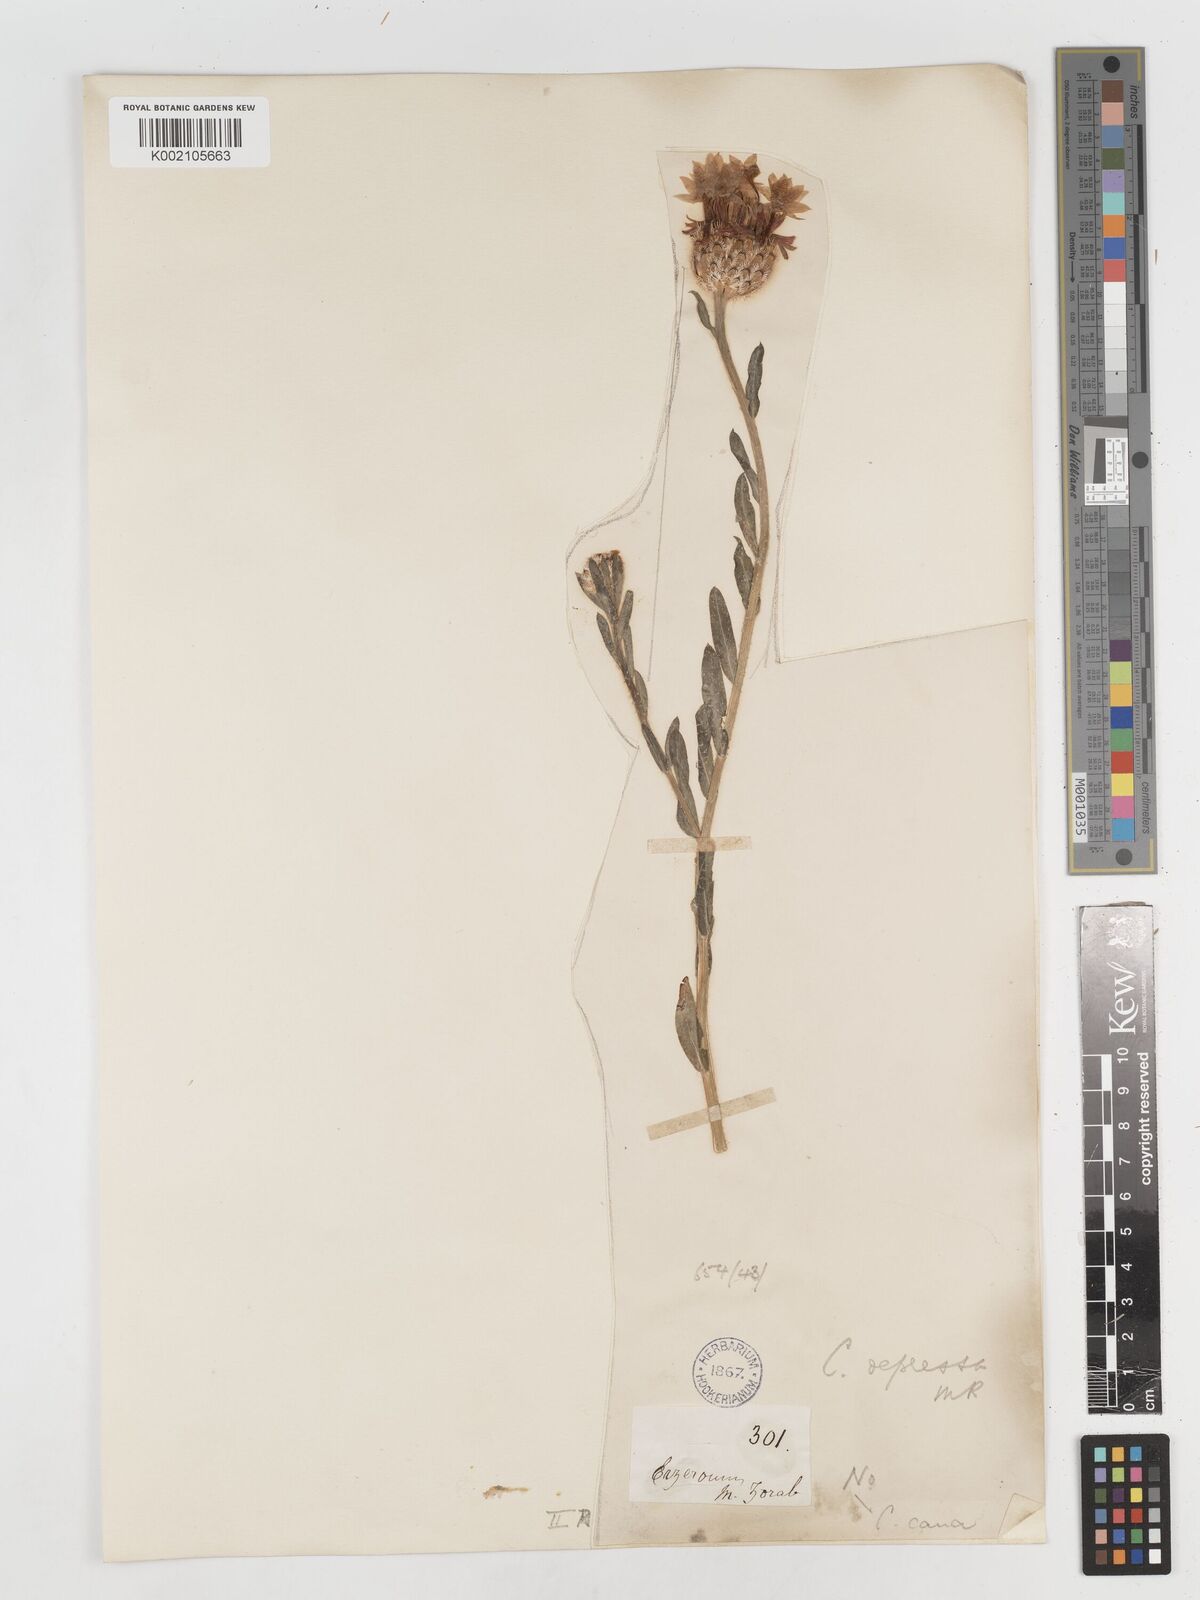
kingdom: Plantae
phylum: Tracheophyta
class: Magnoliopsida
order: Asterales
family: Asteraceae
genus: Centaurea
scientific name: Centaurea depressa
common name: Iranian knapweed
